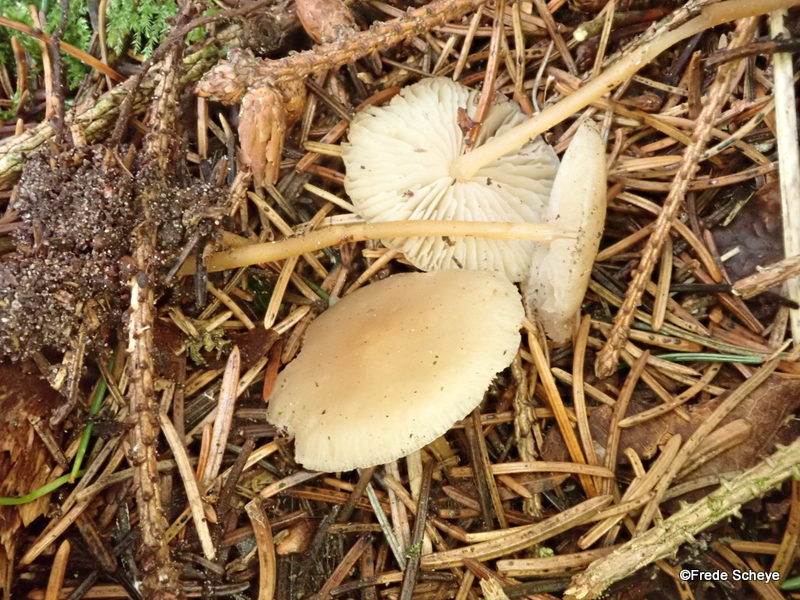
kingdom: Fungi
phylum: Basidiomycota
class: Agaricomycetes
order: Agaricales
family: Physalacriaceae
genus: Strobilurus
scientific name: Strobilurus esculentus
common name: gran-koglehat
